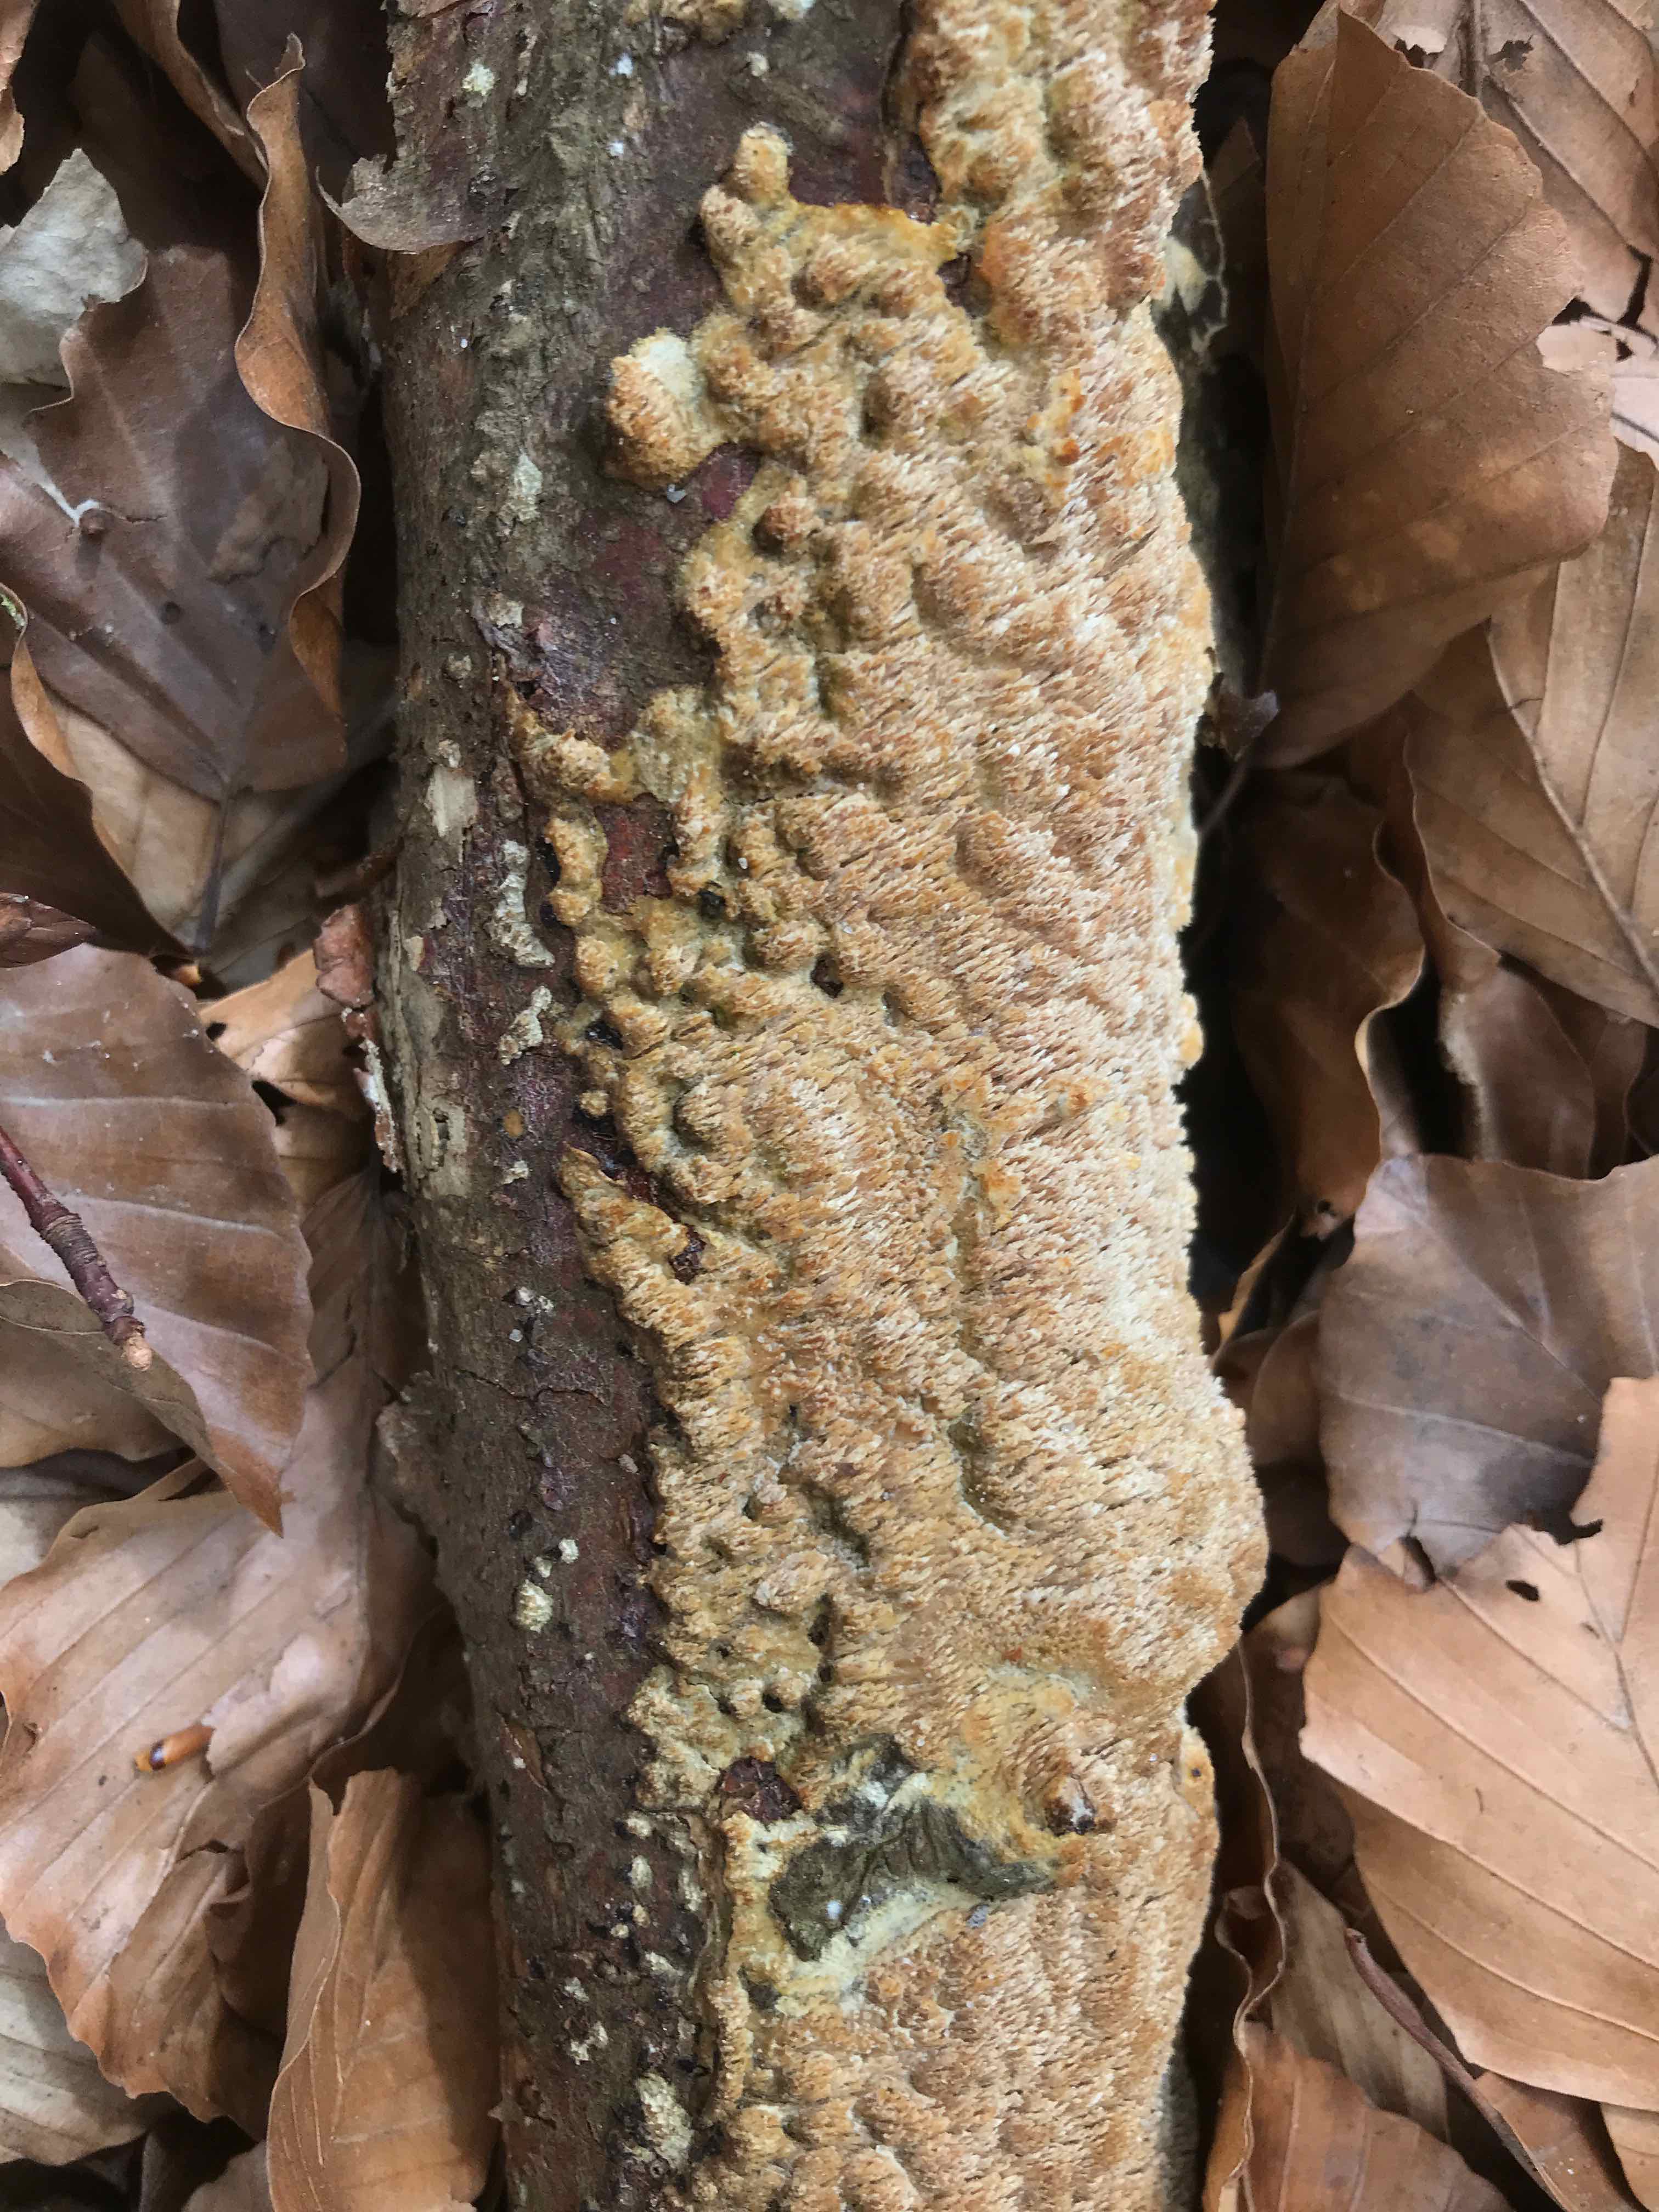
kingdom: Fungi
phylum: Basidiomycota
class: Agaricomycetes
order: Hymenochaetales
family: Schizoporaceae
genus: Xylodon
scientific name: Xylodon
